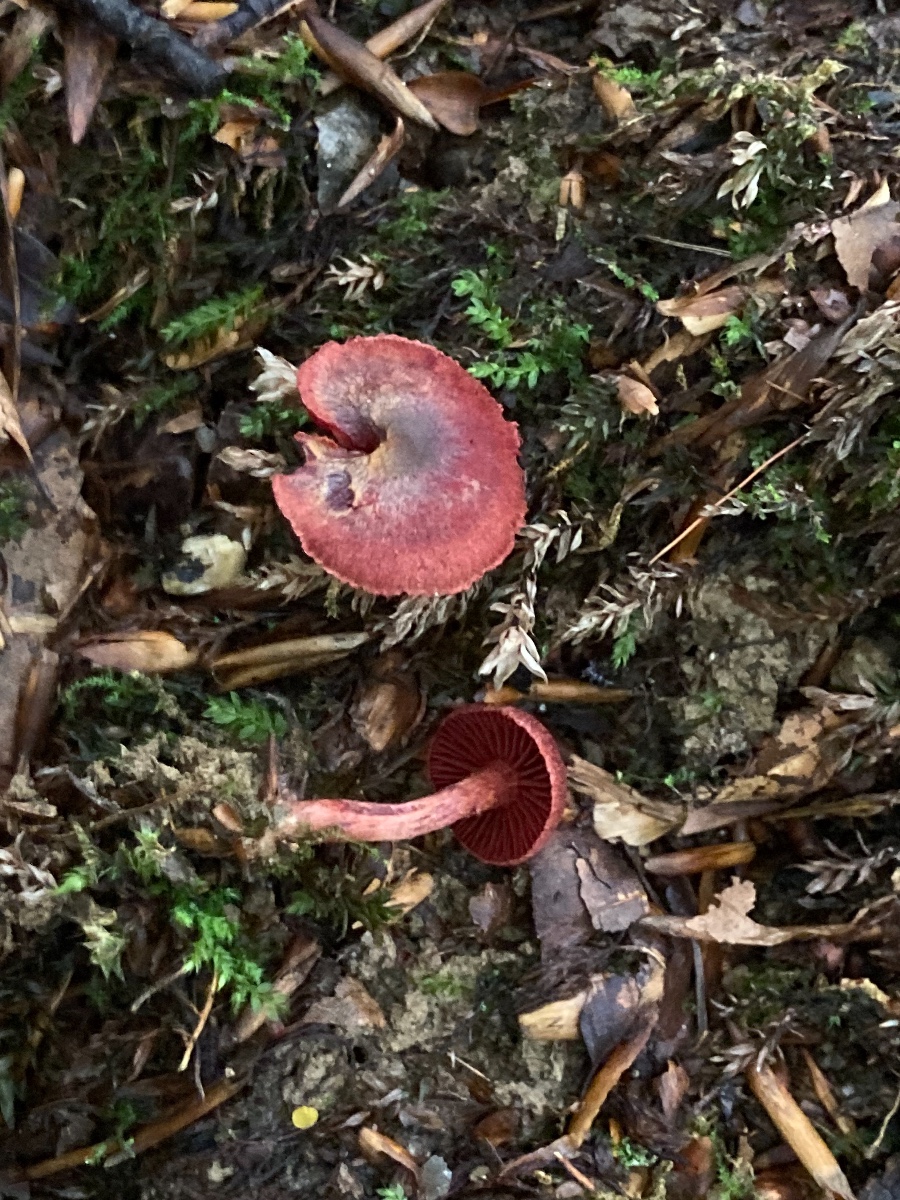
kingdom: Fungi
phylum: Basidiomycota
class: Agaricomycetes
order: Agaricales
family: Cortinariaceae
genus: Cortinarius
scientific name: Cortinarius sanguineus
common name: Bloodred webcap
